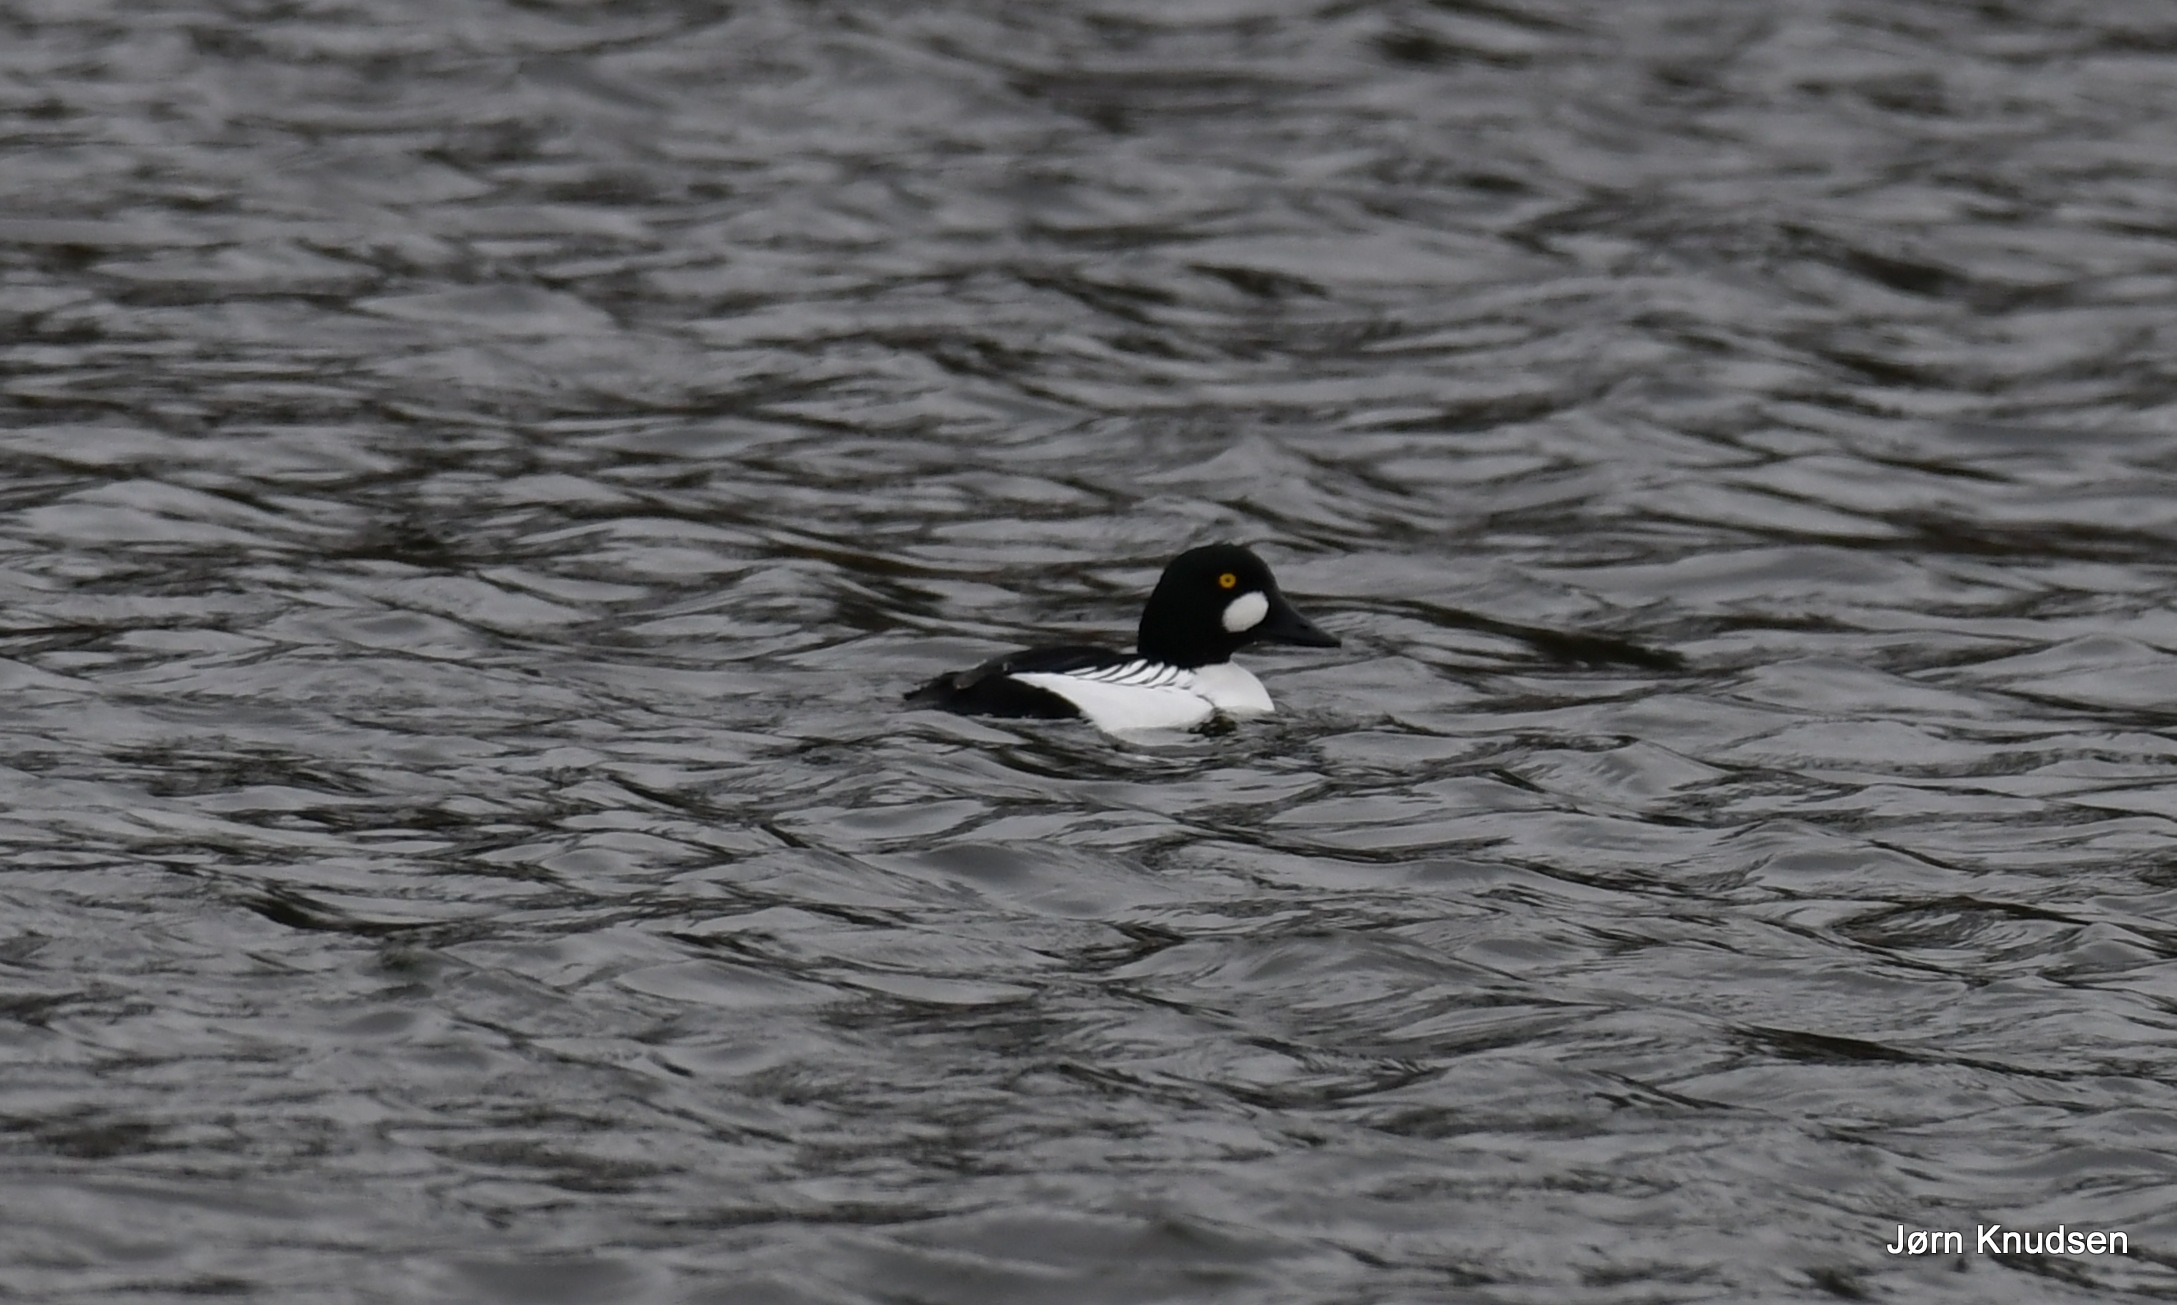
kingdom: Animalia
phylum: Chordata
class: Aves
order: Anseriformes
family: Anatidae
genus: Bucephala
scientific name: Bucephala clangula
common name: Hvinand
